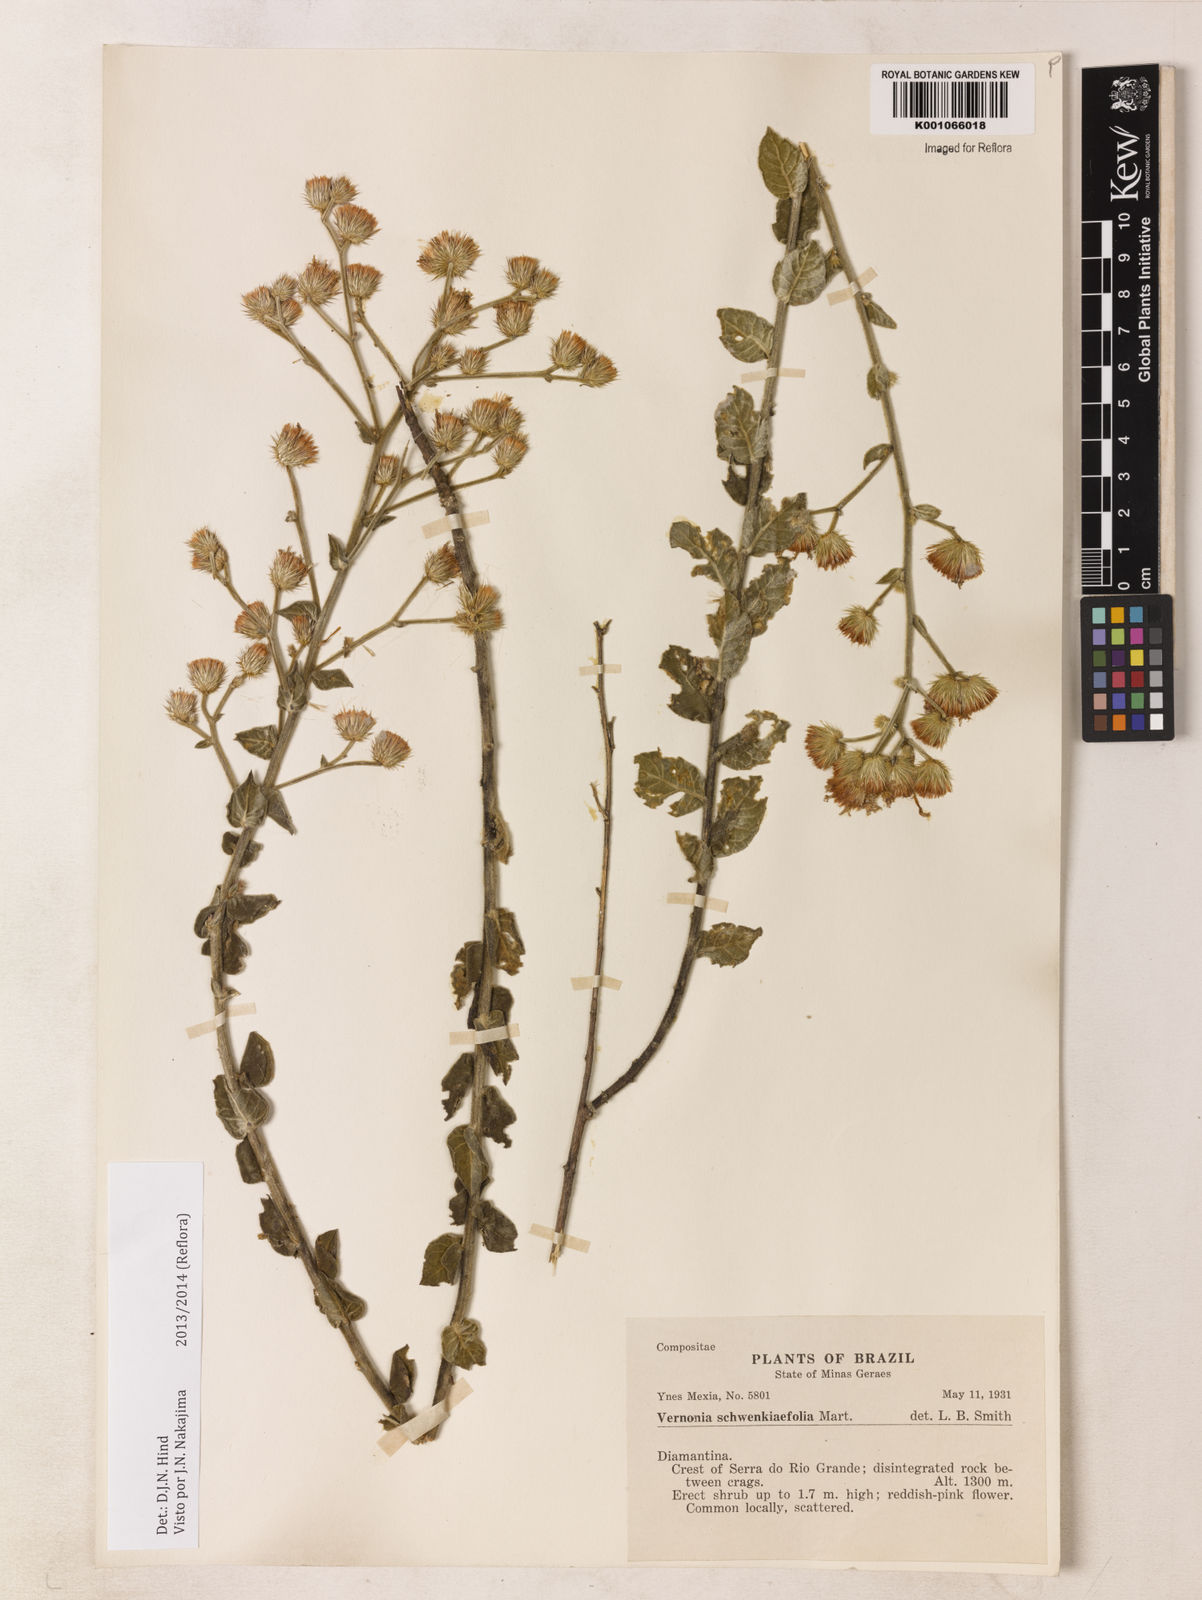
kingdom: Plantae
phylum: Tracheophyta
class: Magnoliopsida
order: Asterales
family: Asteraceae
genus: Vernonia
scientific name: Vernonia
